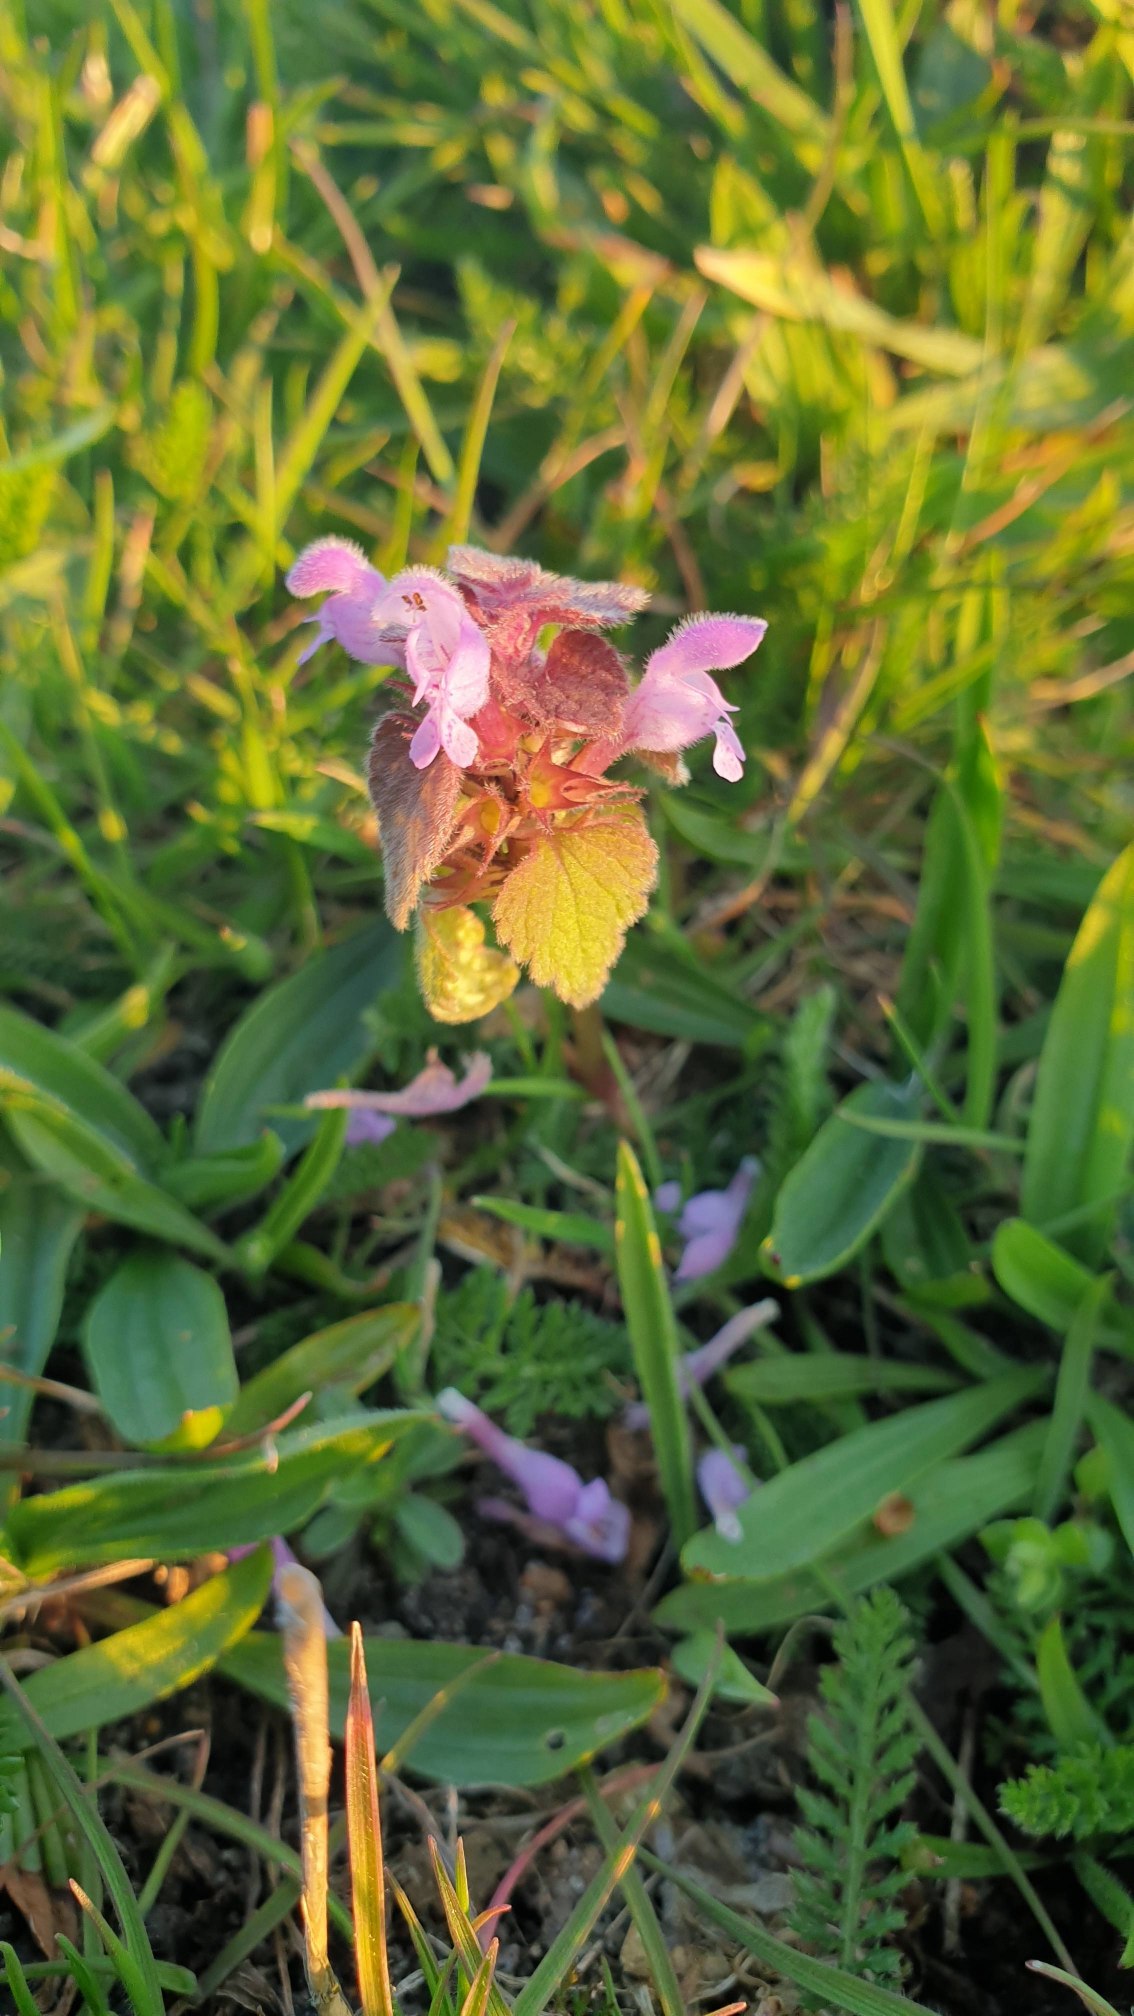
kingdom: Plantae
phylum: Tracheophyta
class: Magnoliopsida
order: Lamiales
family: Lamiaceae
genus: Lamium
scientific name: Lamium purpureum
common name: Rød tvetand
